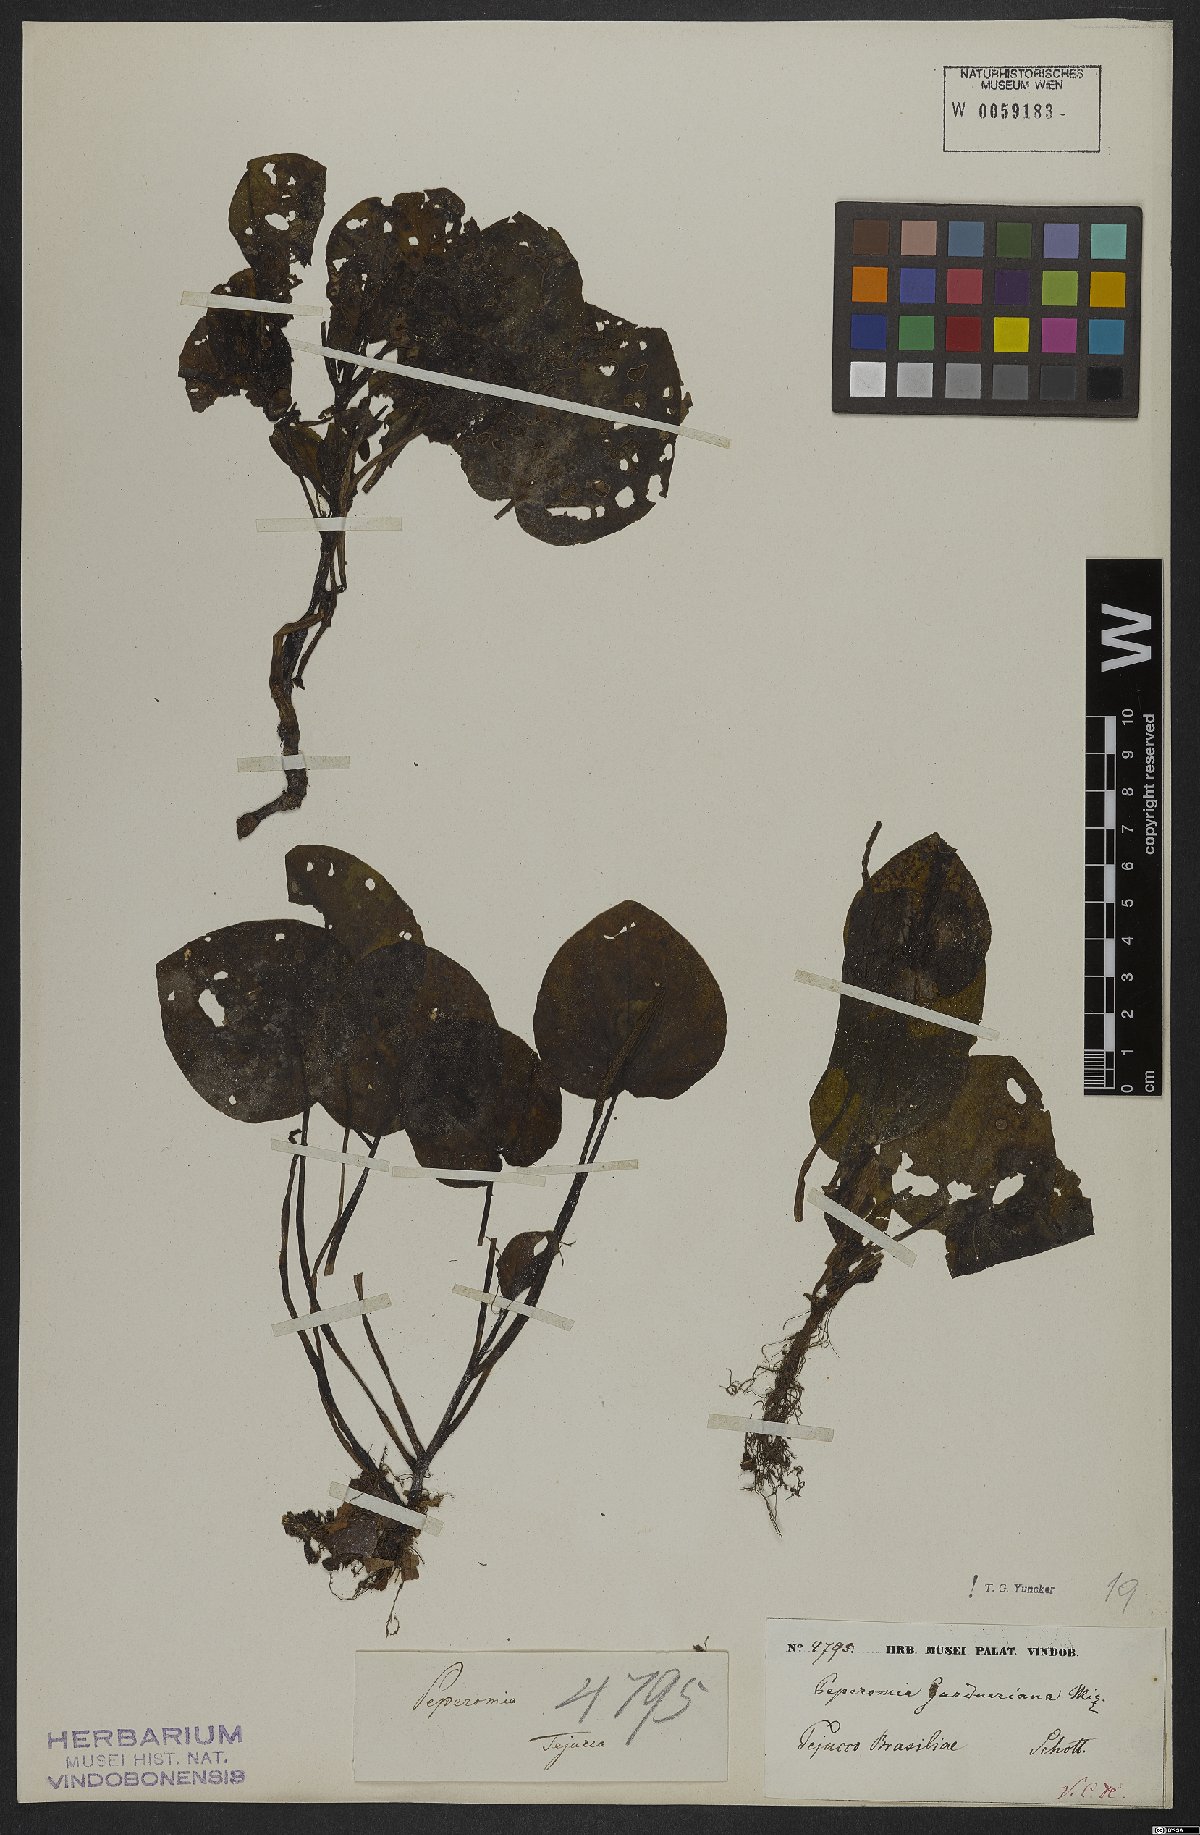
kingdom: Plantae
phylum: Tracheophyta
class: Magnoliopsida
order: Piperales
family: Piperaceae
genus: Peperomia
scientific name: Peperomia gardneriana
